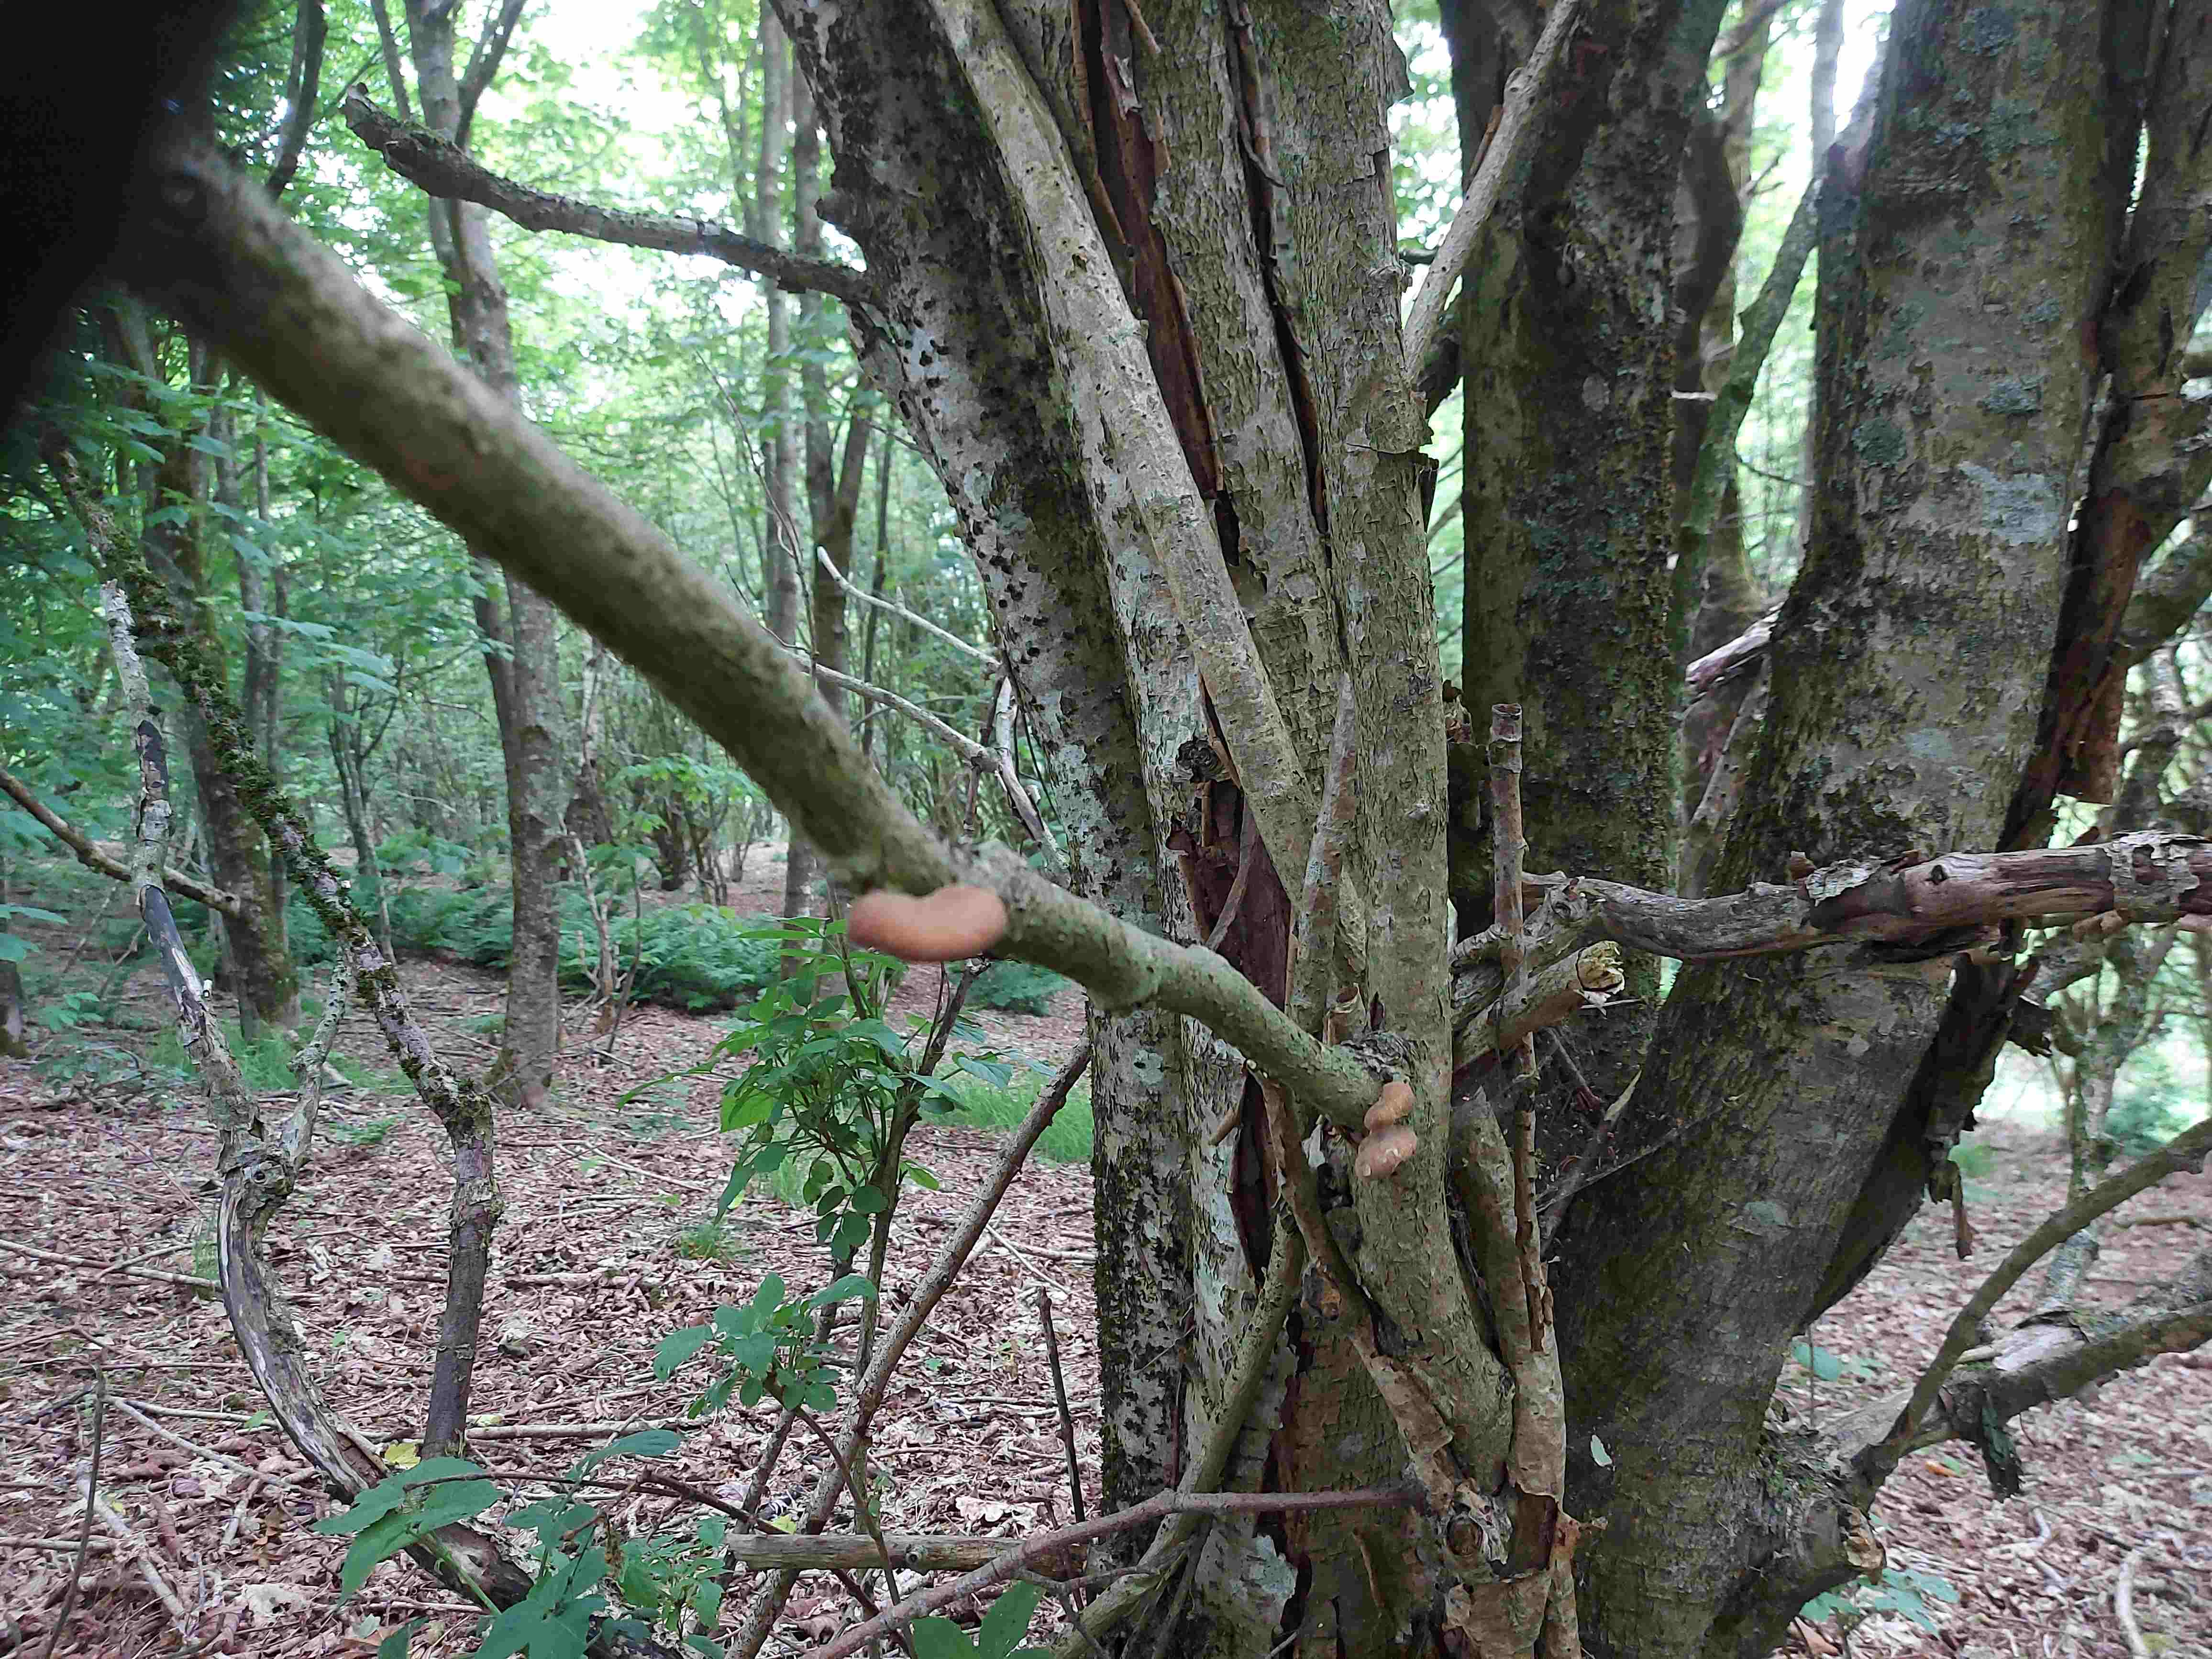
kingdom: Fungi
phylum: Basidiomycota
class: Agaricomycetes
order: Polyporales
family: Polyporaceae
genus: Cerioporus
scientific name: Cerioporus varius
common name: foranderlig stilkporesvamp
